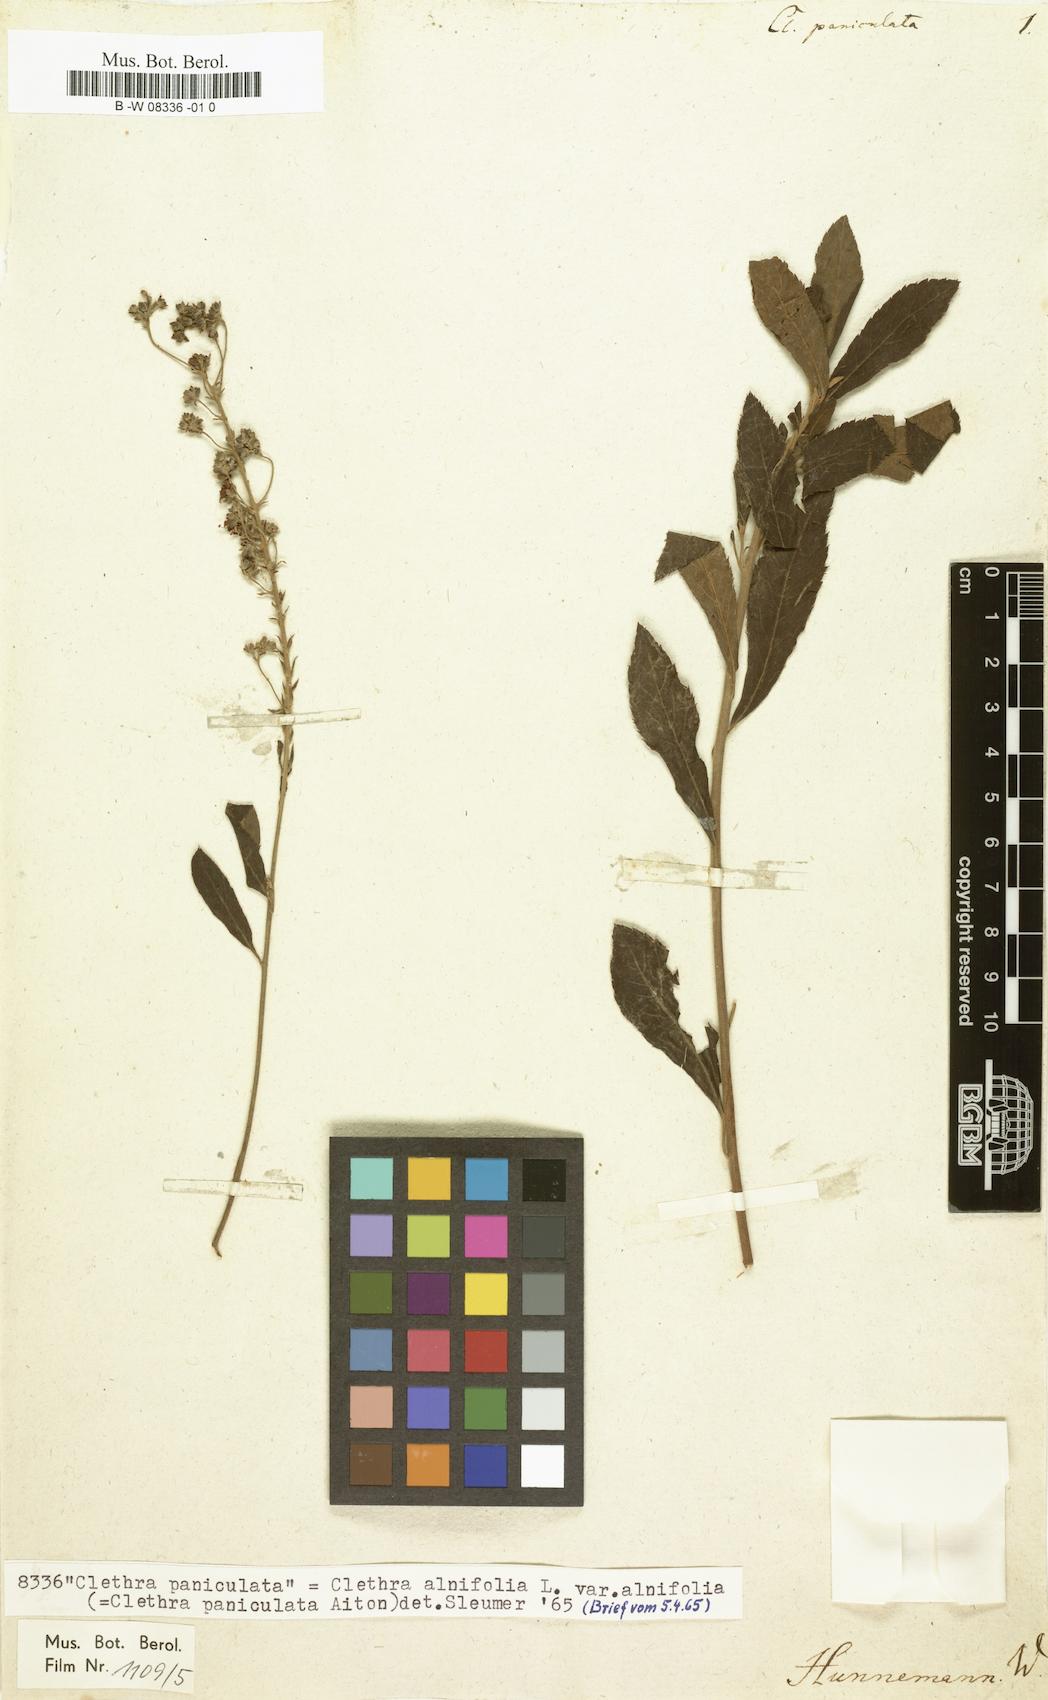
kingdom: Plantae
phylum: Tracheophyta
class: Magnoliopsida
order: Ericales
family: Clethraceae
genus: Clethra
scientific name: Clethra alnifolia
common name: Sweet pepperbush
